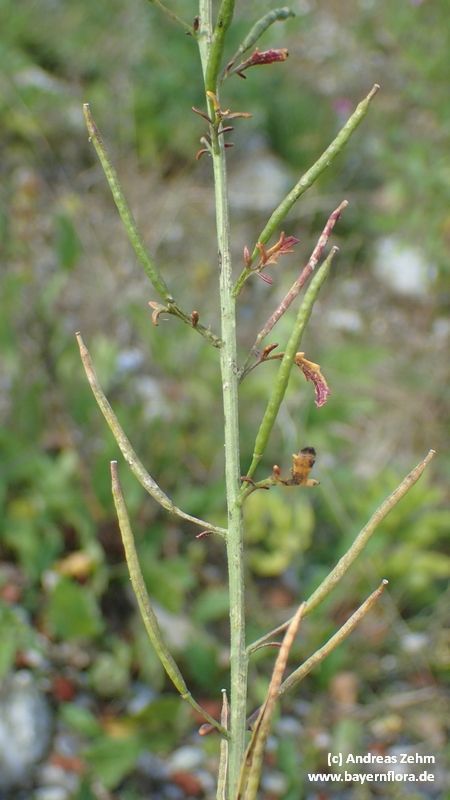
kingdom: Plantae
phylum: Tracheophyta
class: Magnoliopsida
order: Brassicales
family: Brassicaceae
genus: Erucastrum
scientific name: Erucastrum nasturtiifolium
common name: Watercress-leaf rocket
